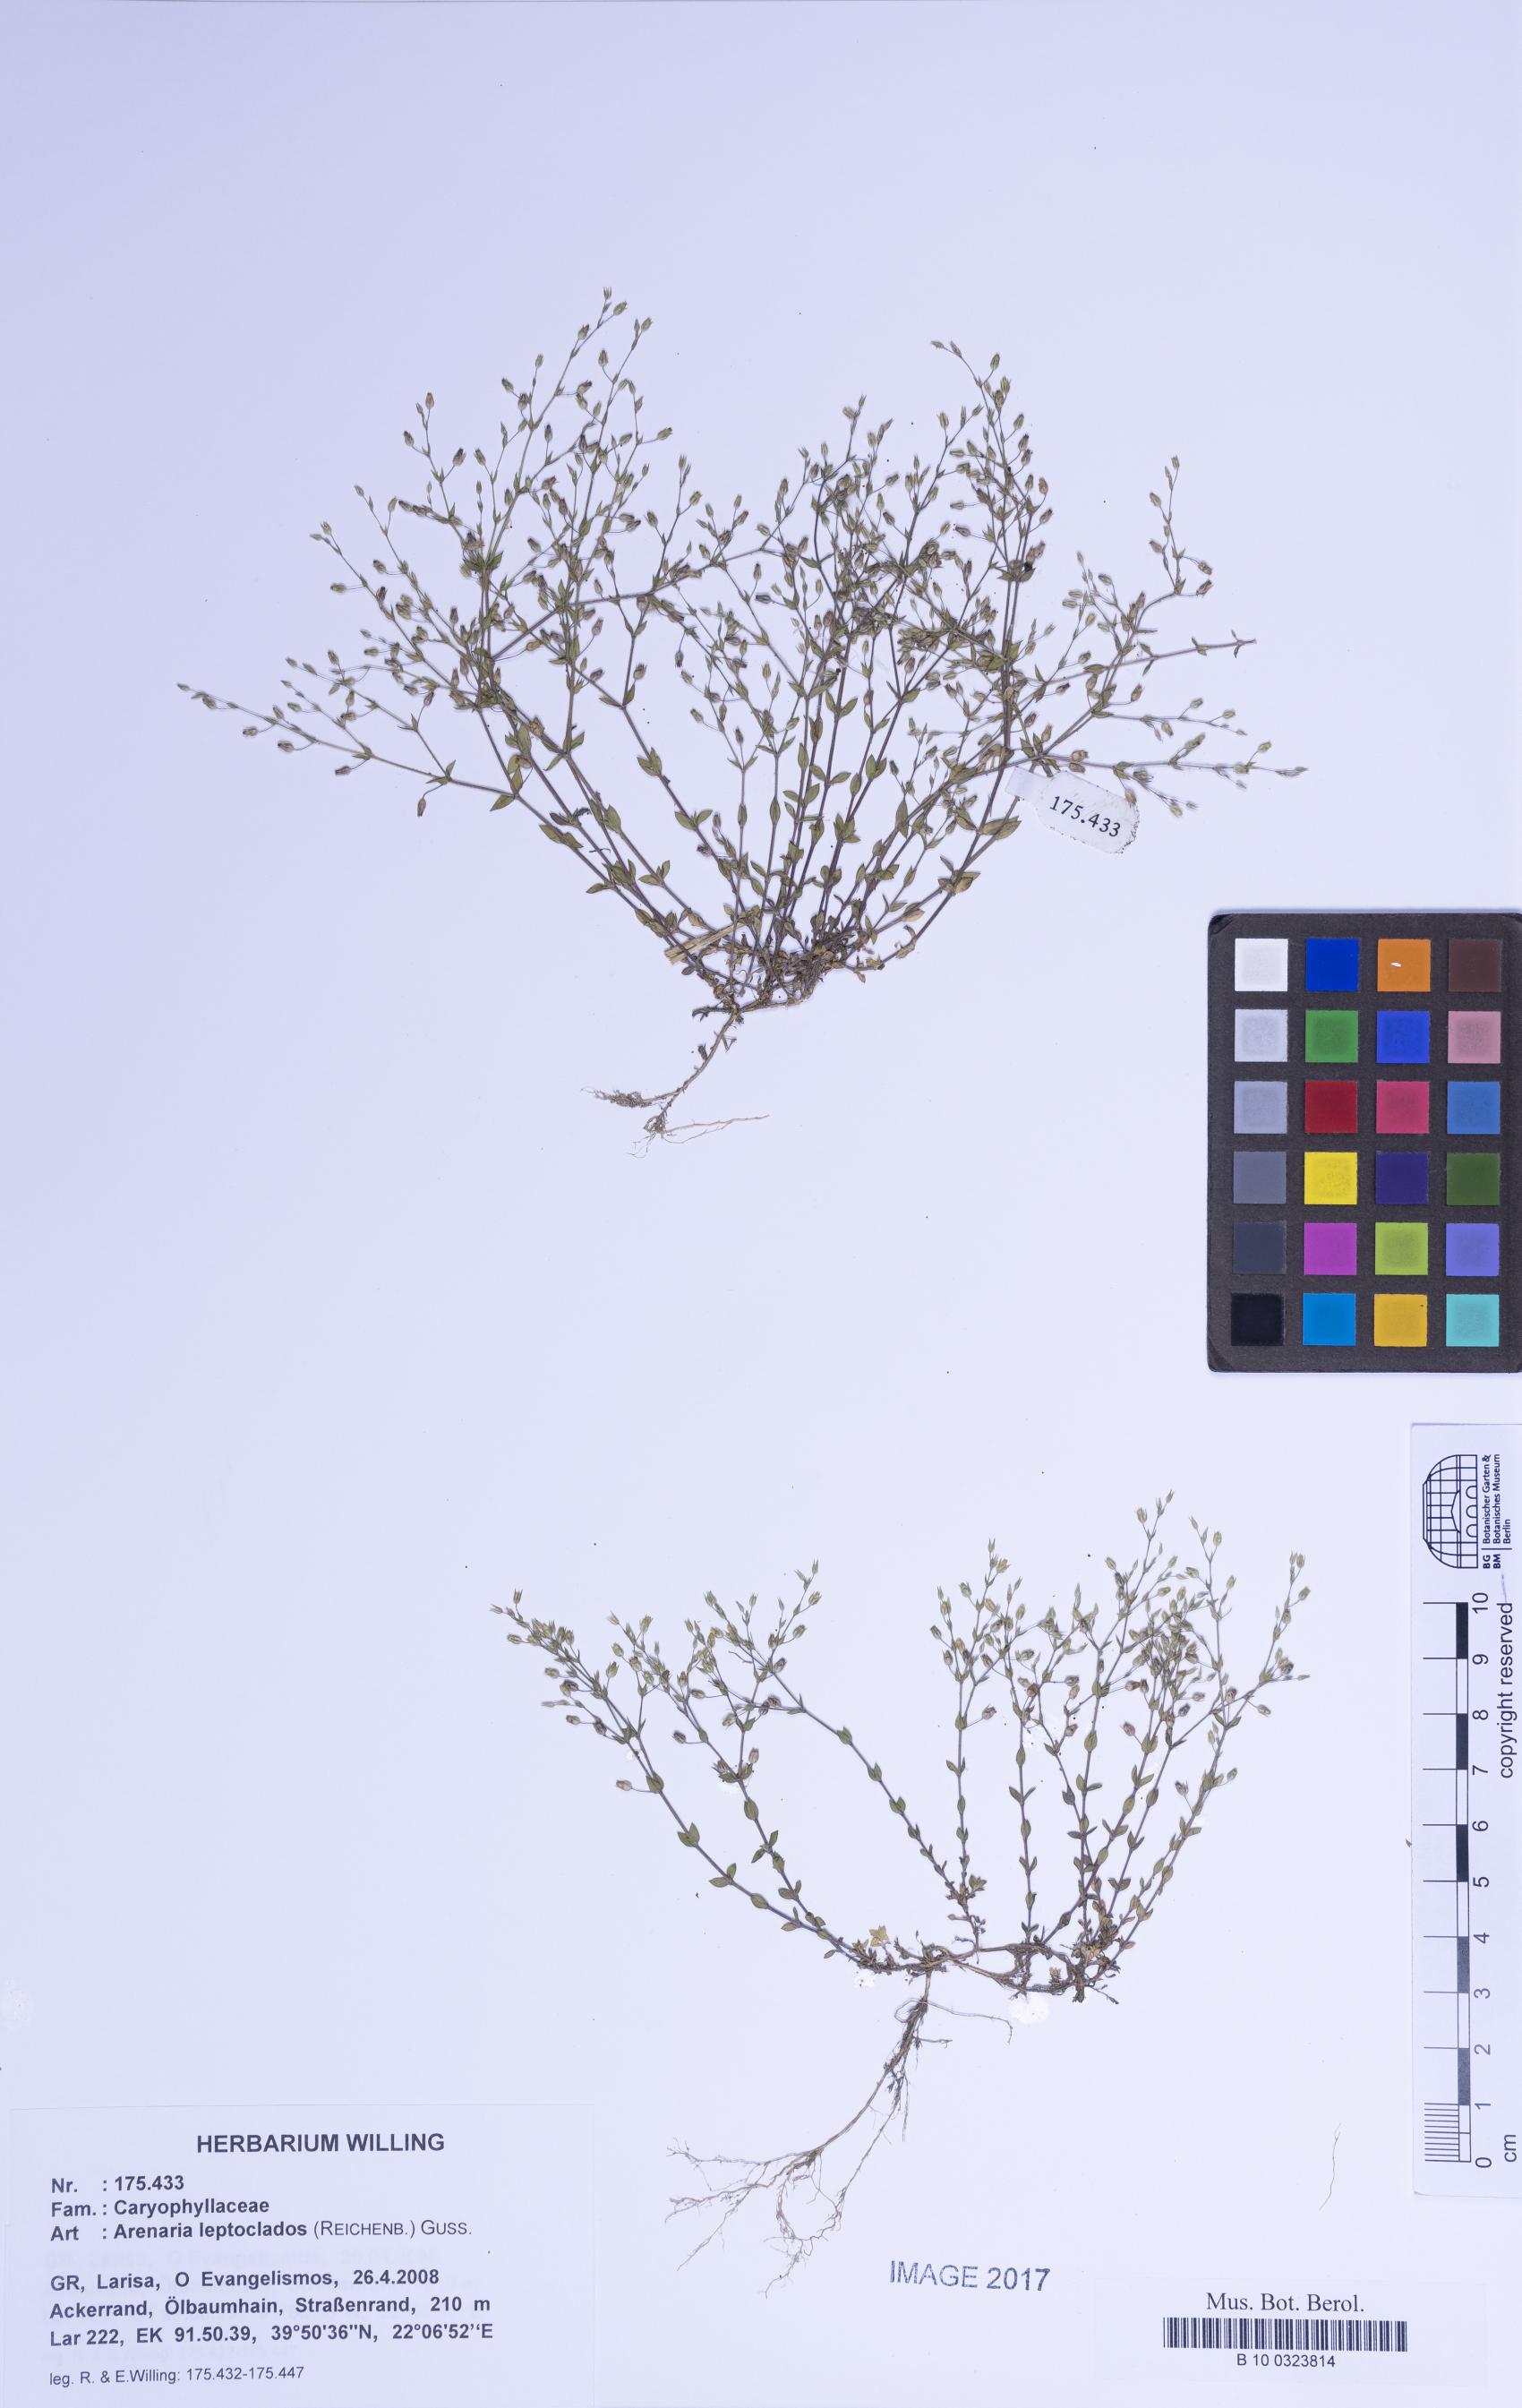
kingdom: Plantae
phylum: Tracheophyta
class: Magnoliopsida
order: Caryophyllales
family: Caryophyllaceae
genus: Arenaria
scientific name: Arenaria leptoclados
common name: Thyme-leaved sandwort
